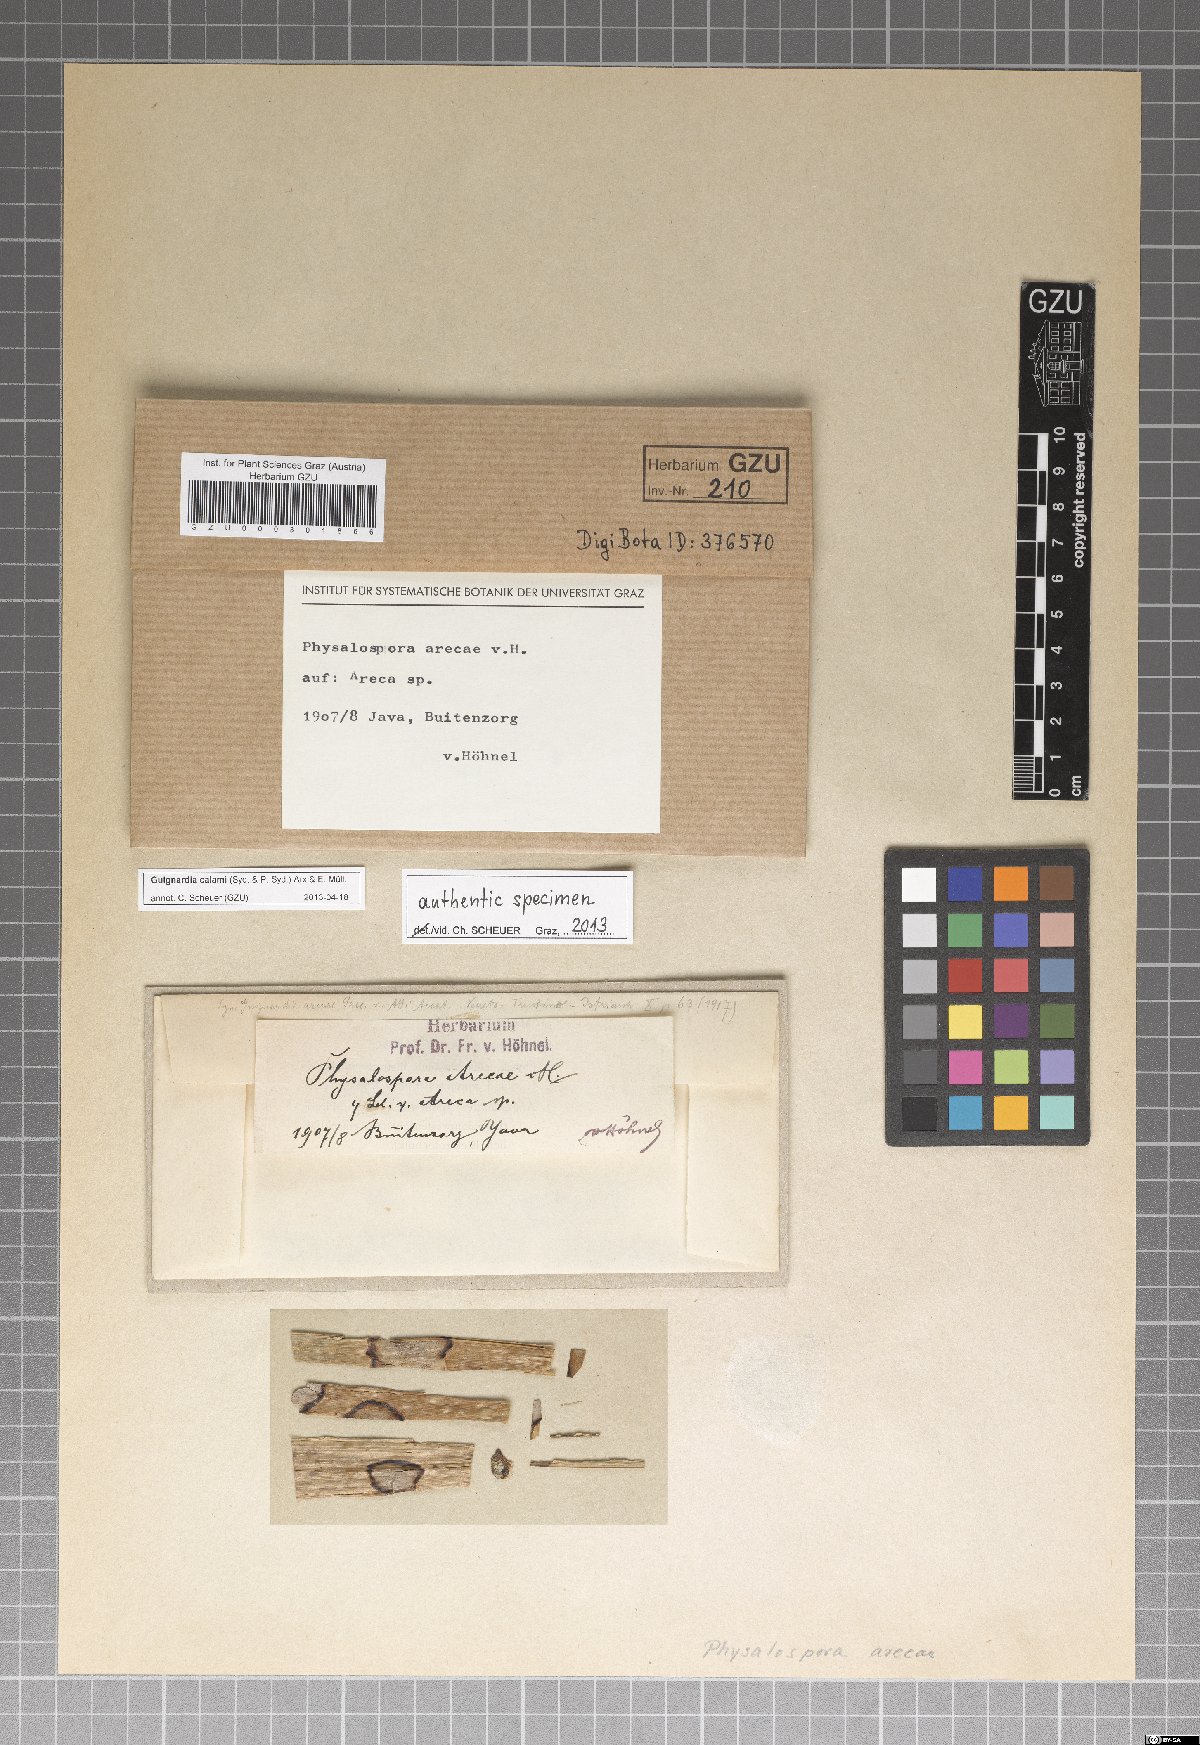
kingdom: Fungi
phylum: Ascomycota
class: Dothideomycetes
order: Botryosphaeriales
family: Phyllostictaceae
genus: Guignardia
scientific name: Guignardia calami
